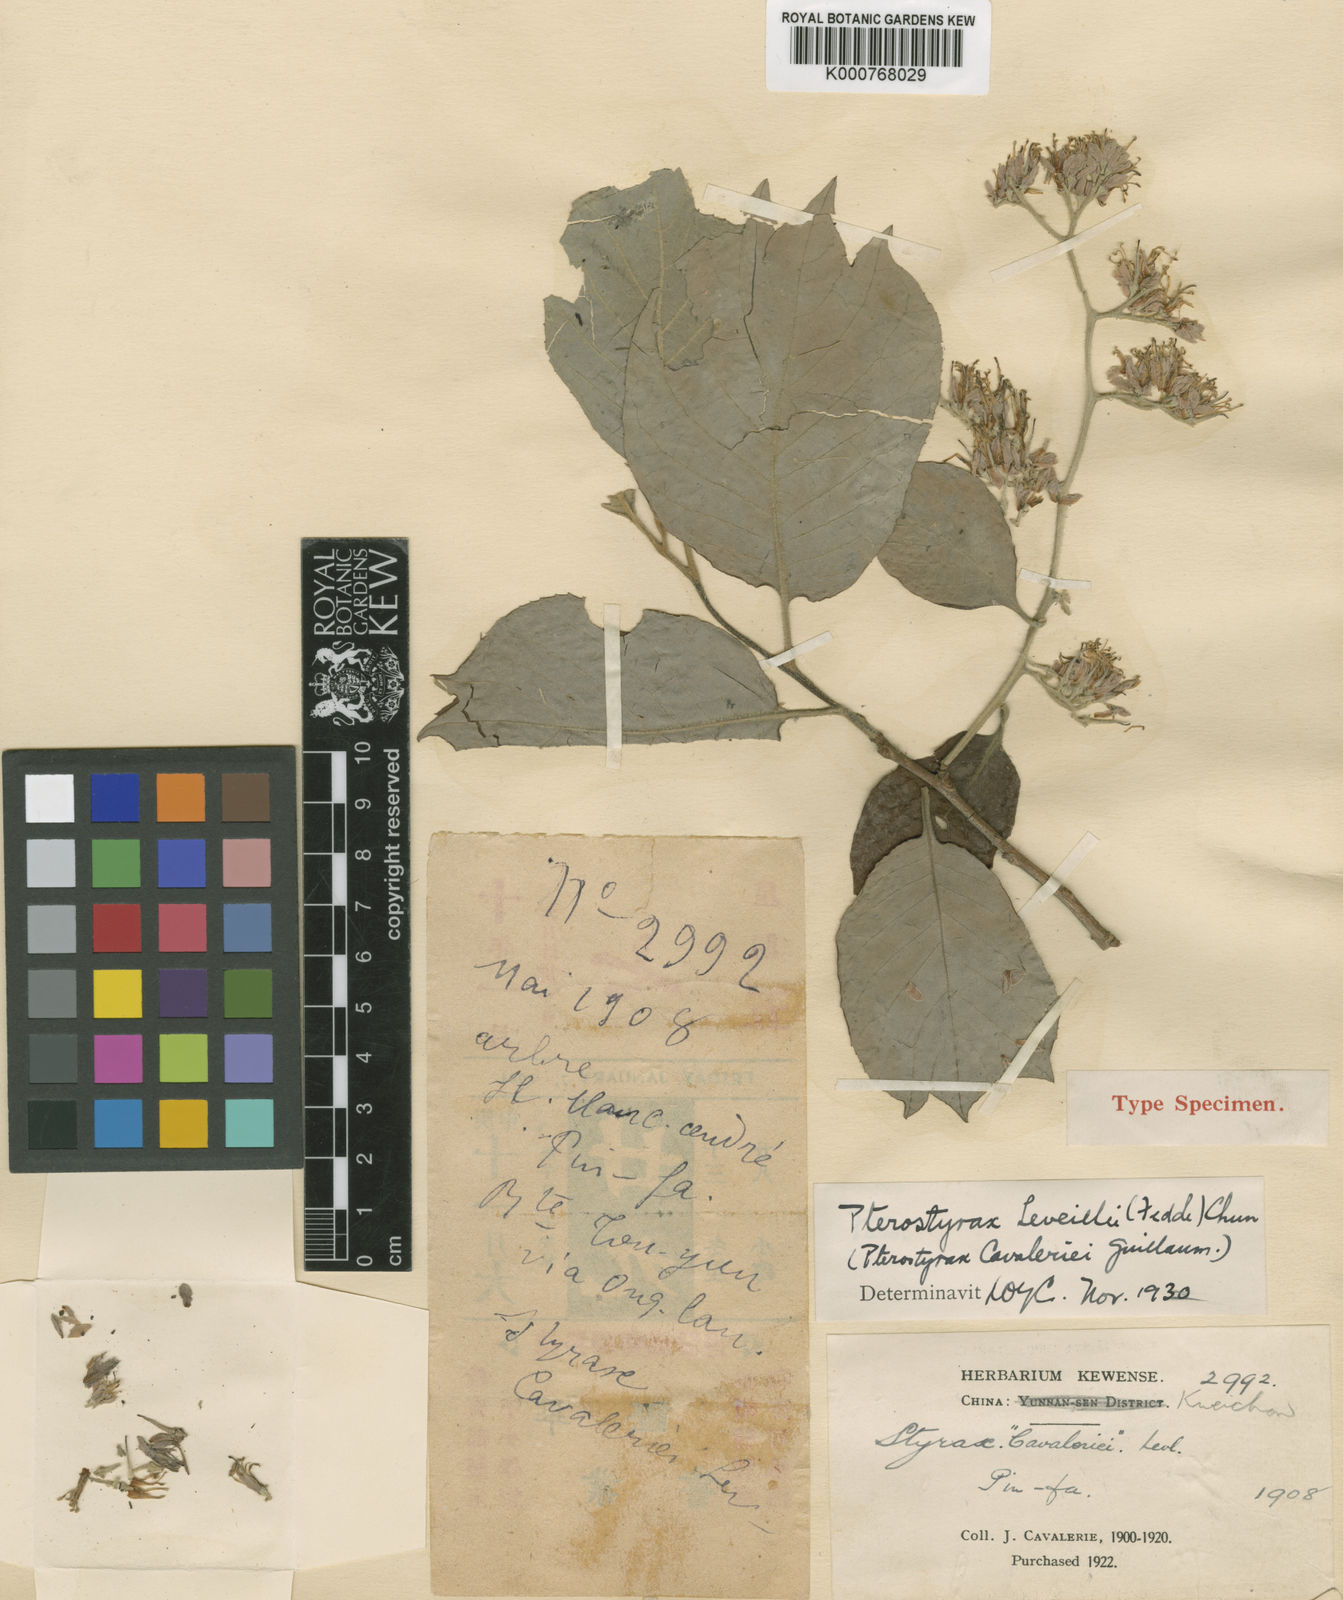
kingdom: Plantae
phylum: Tracheophyta
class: Magnoliopsida
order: Ericales
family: Styracaceae
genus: Pterostyrax
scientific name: Pterostyrax
